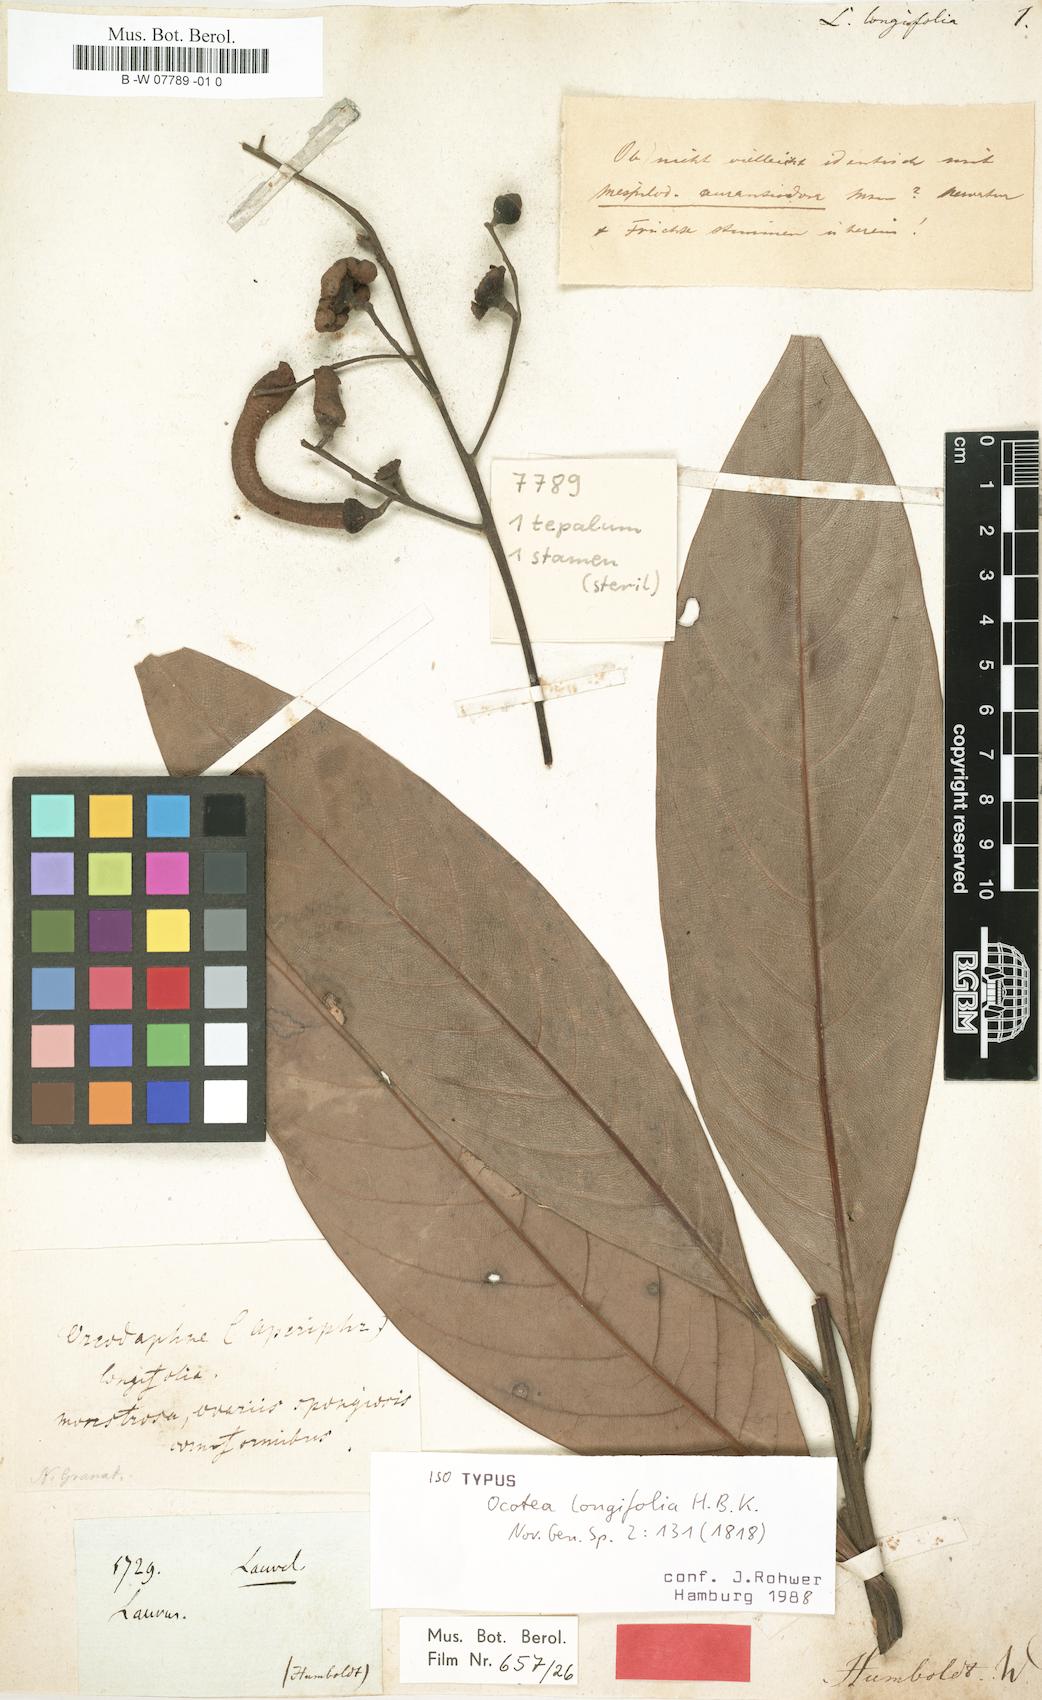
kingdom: Plantae
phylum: Tracheophyta
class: Magnoliopsida
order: Laurales
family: Lauraceae
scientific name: Lauraceae
